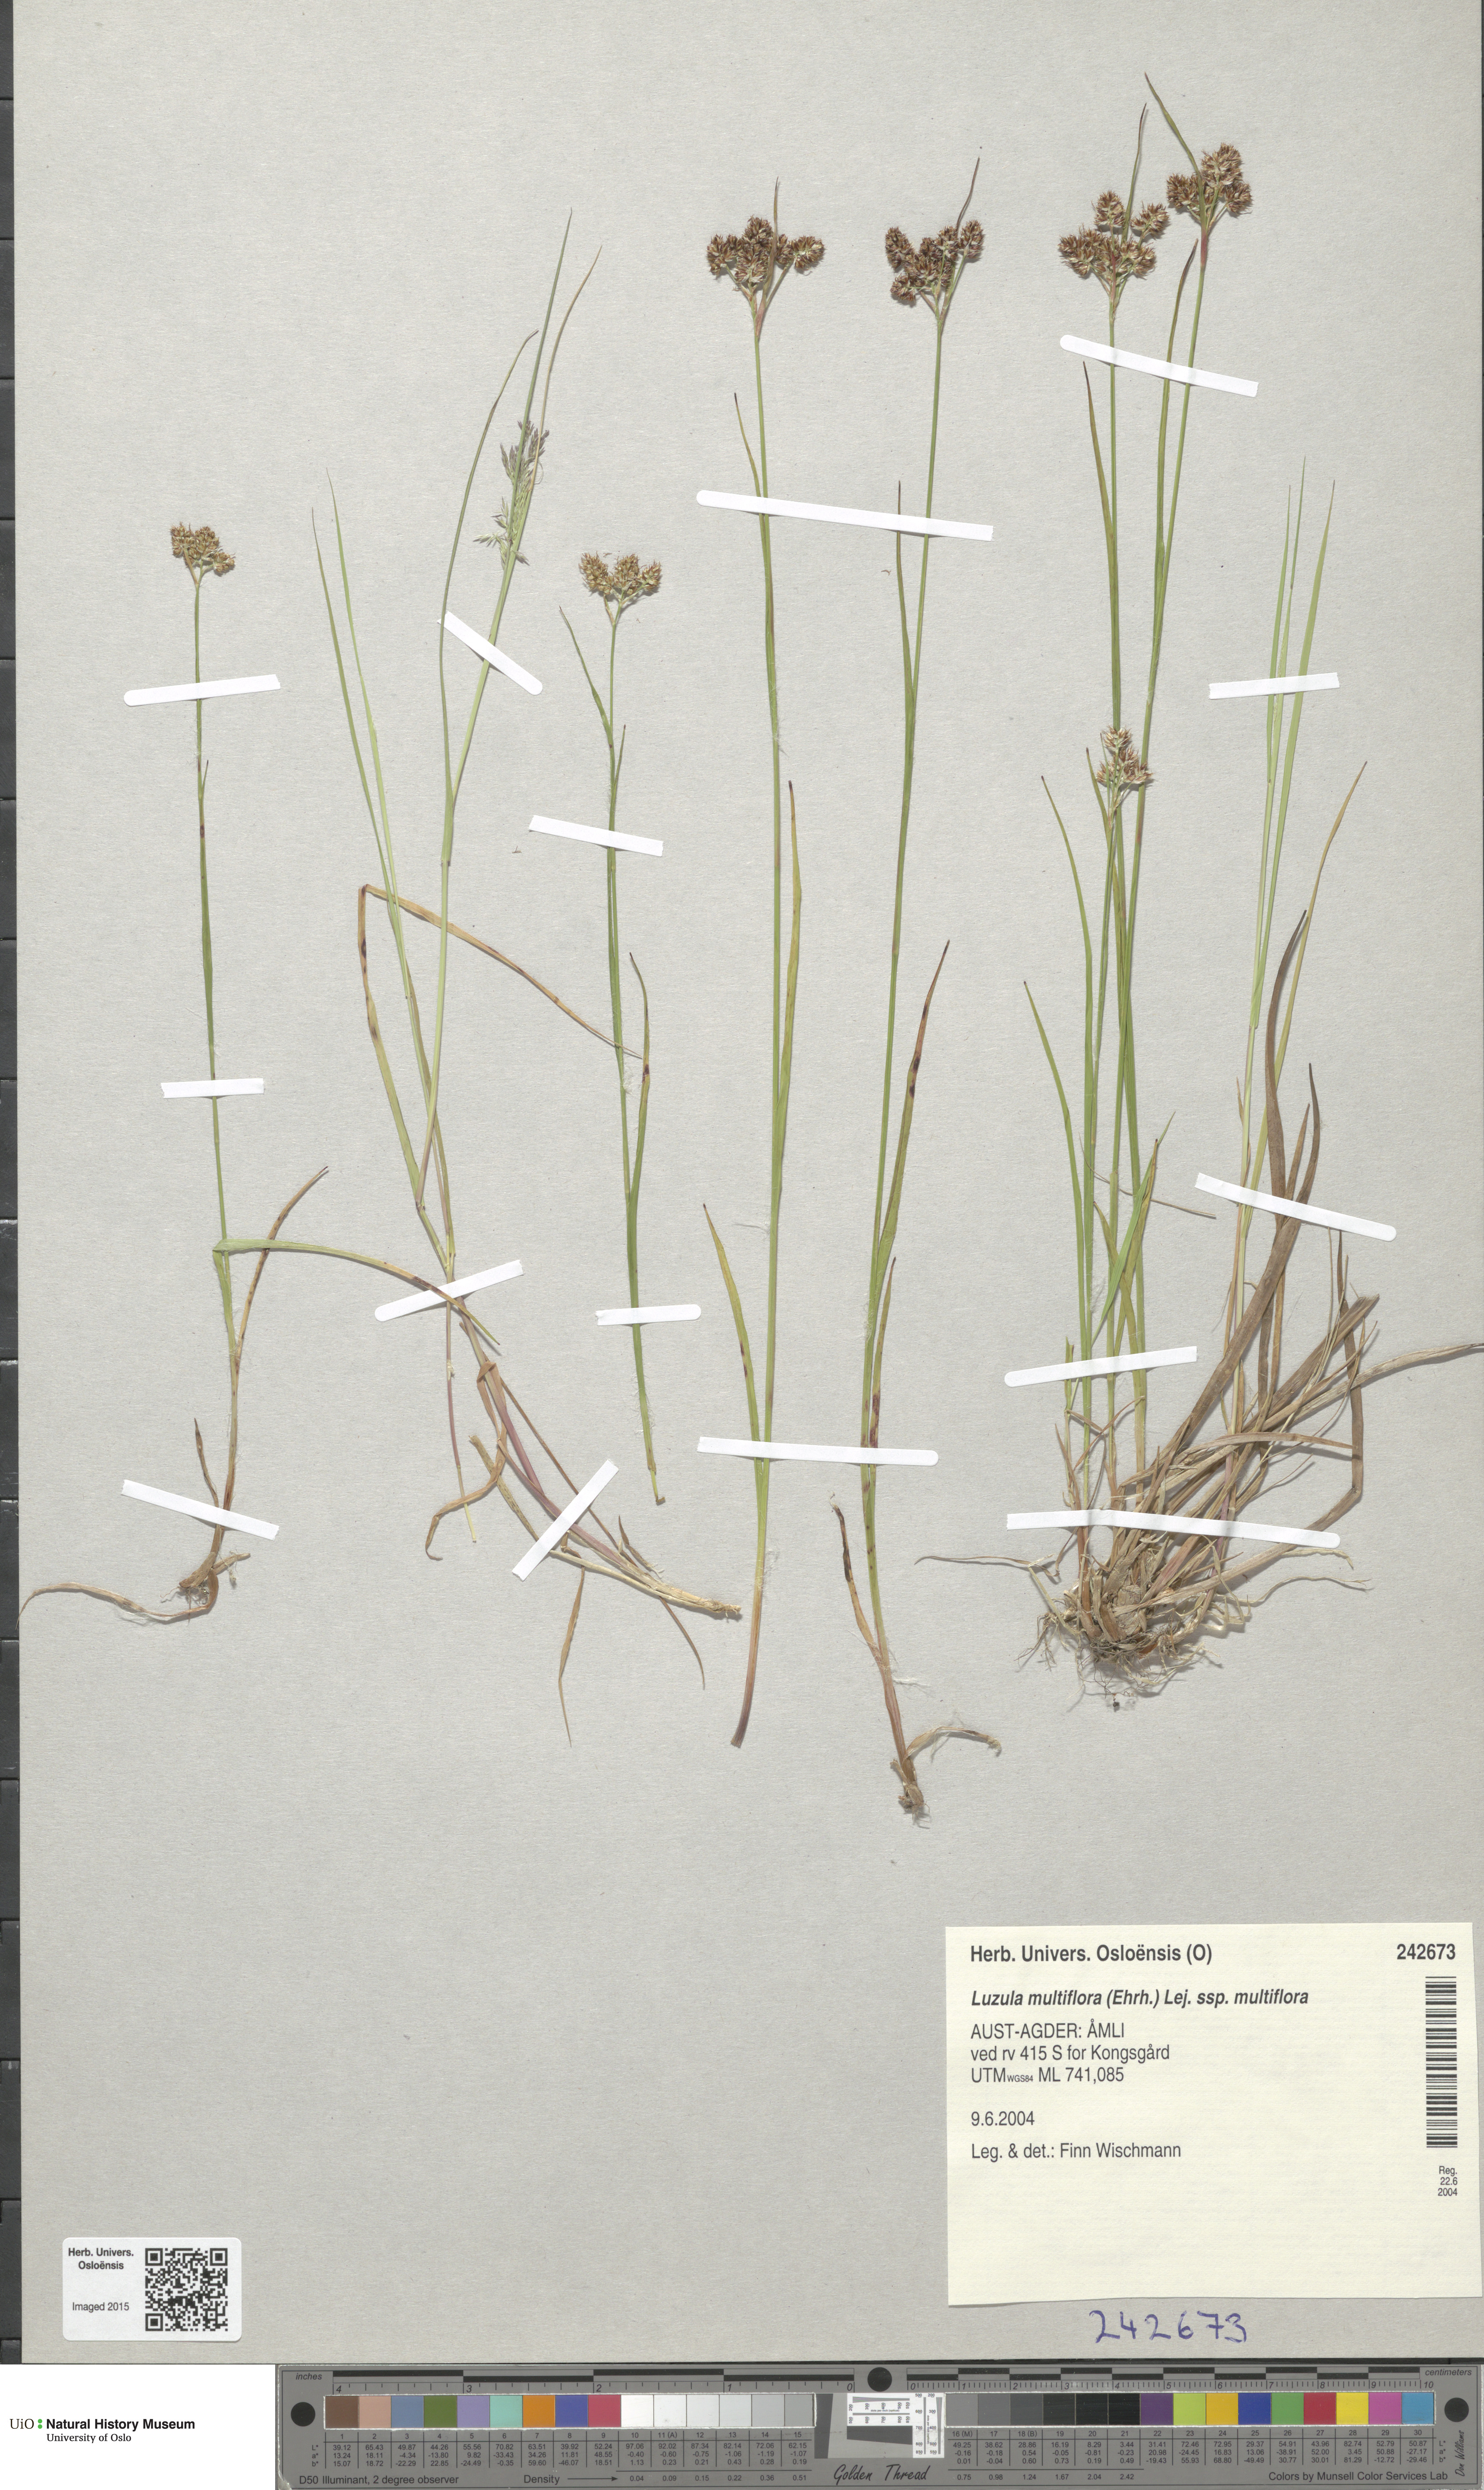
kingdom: Plantae
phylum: Tracheophyta
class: Liliopsida
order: Poales
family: Juncaceae
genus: Luzula
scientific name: Luzula multiflora
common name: Heath wood-rush
